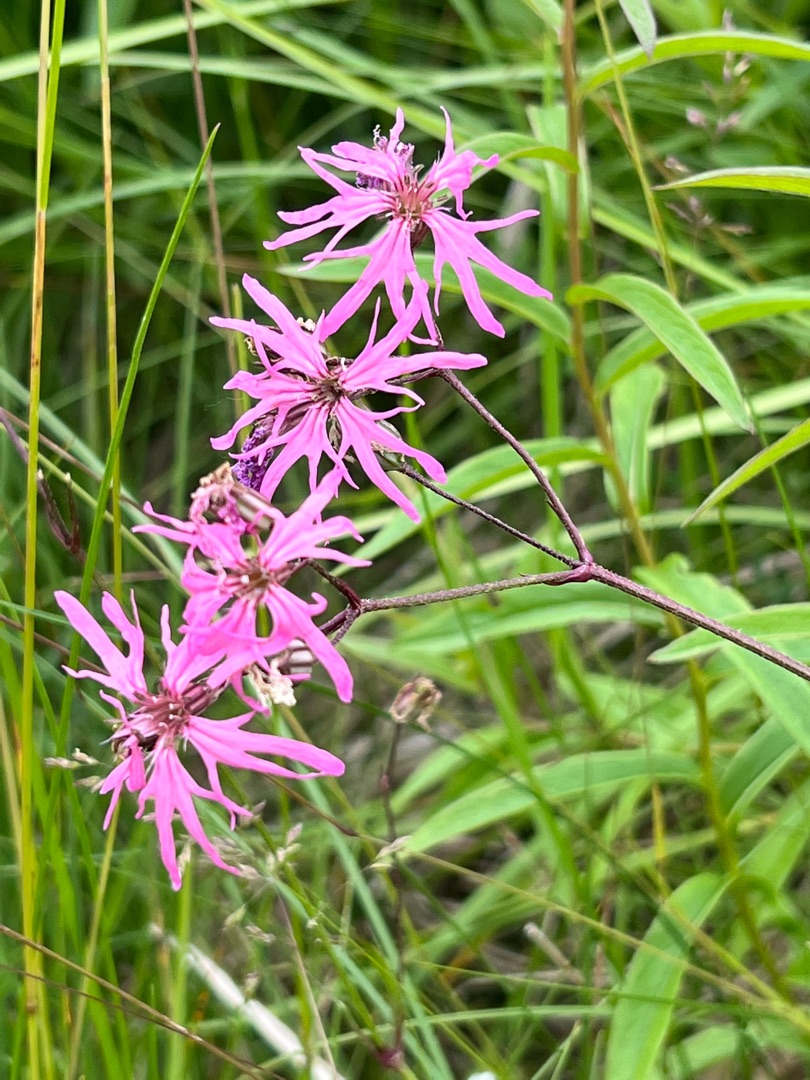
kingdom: Plantae
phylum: Tracheophyta
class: Magnoliopsida
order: Caryophyllales
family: Caryophyllaceae
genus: Silene
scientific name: Silene flos-cuculi
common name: Trævlekrone
